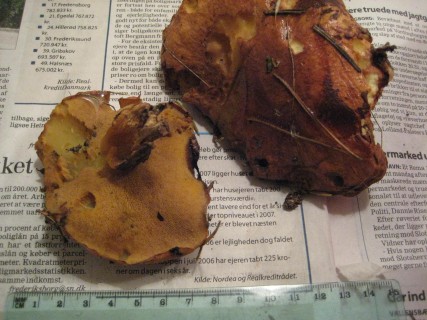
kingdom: Fungi
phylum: Basidiomycota
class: Agaricomycetes
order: Boletales
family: Suillaceae
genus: Suillus
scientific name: Suillus luteus
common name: brungul slimrørhat
